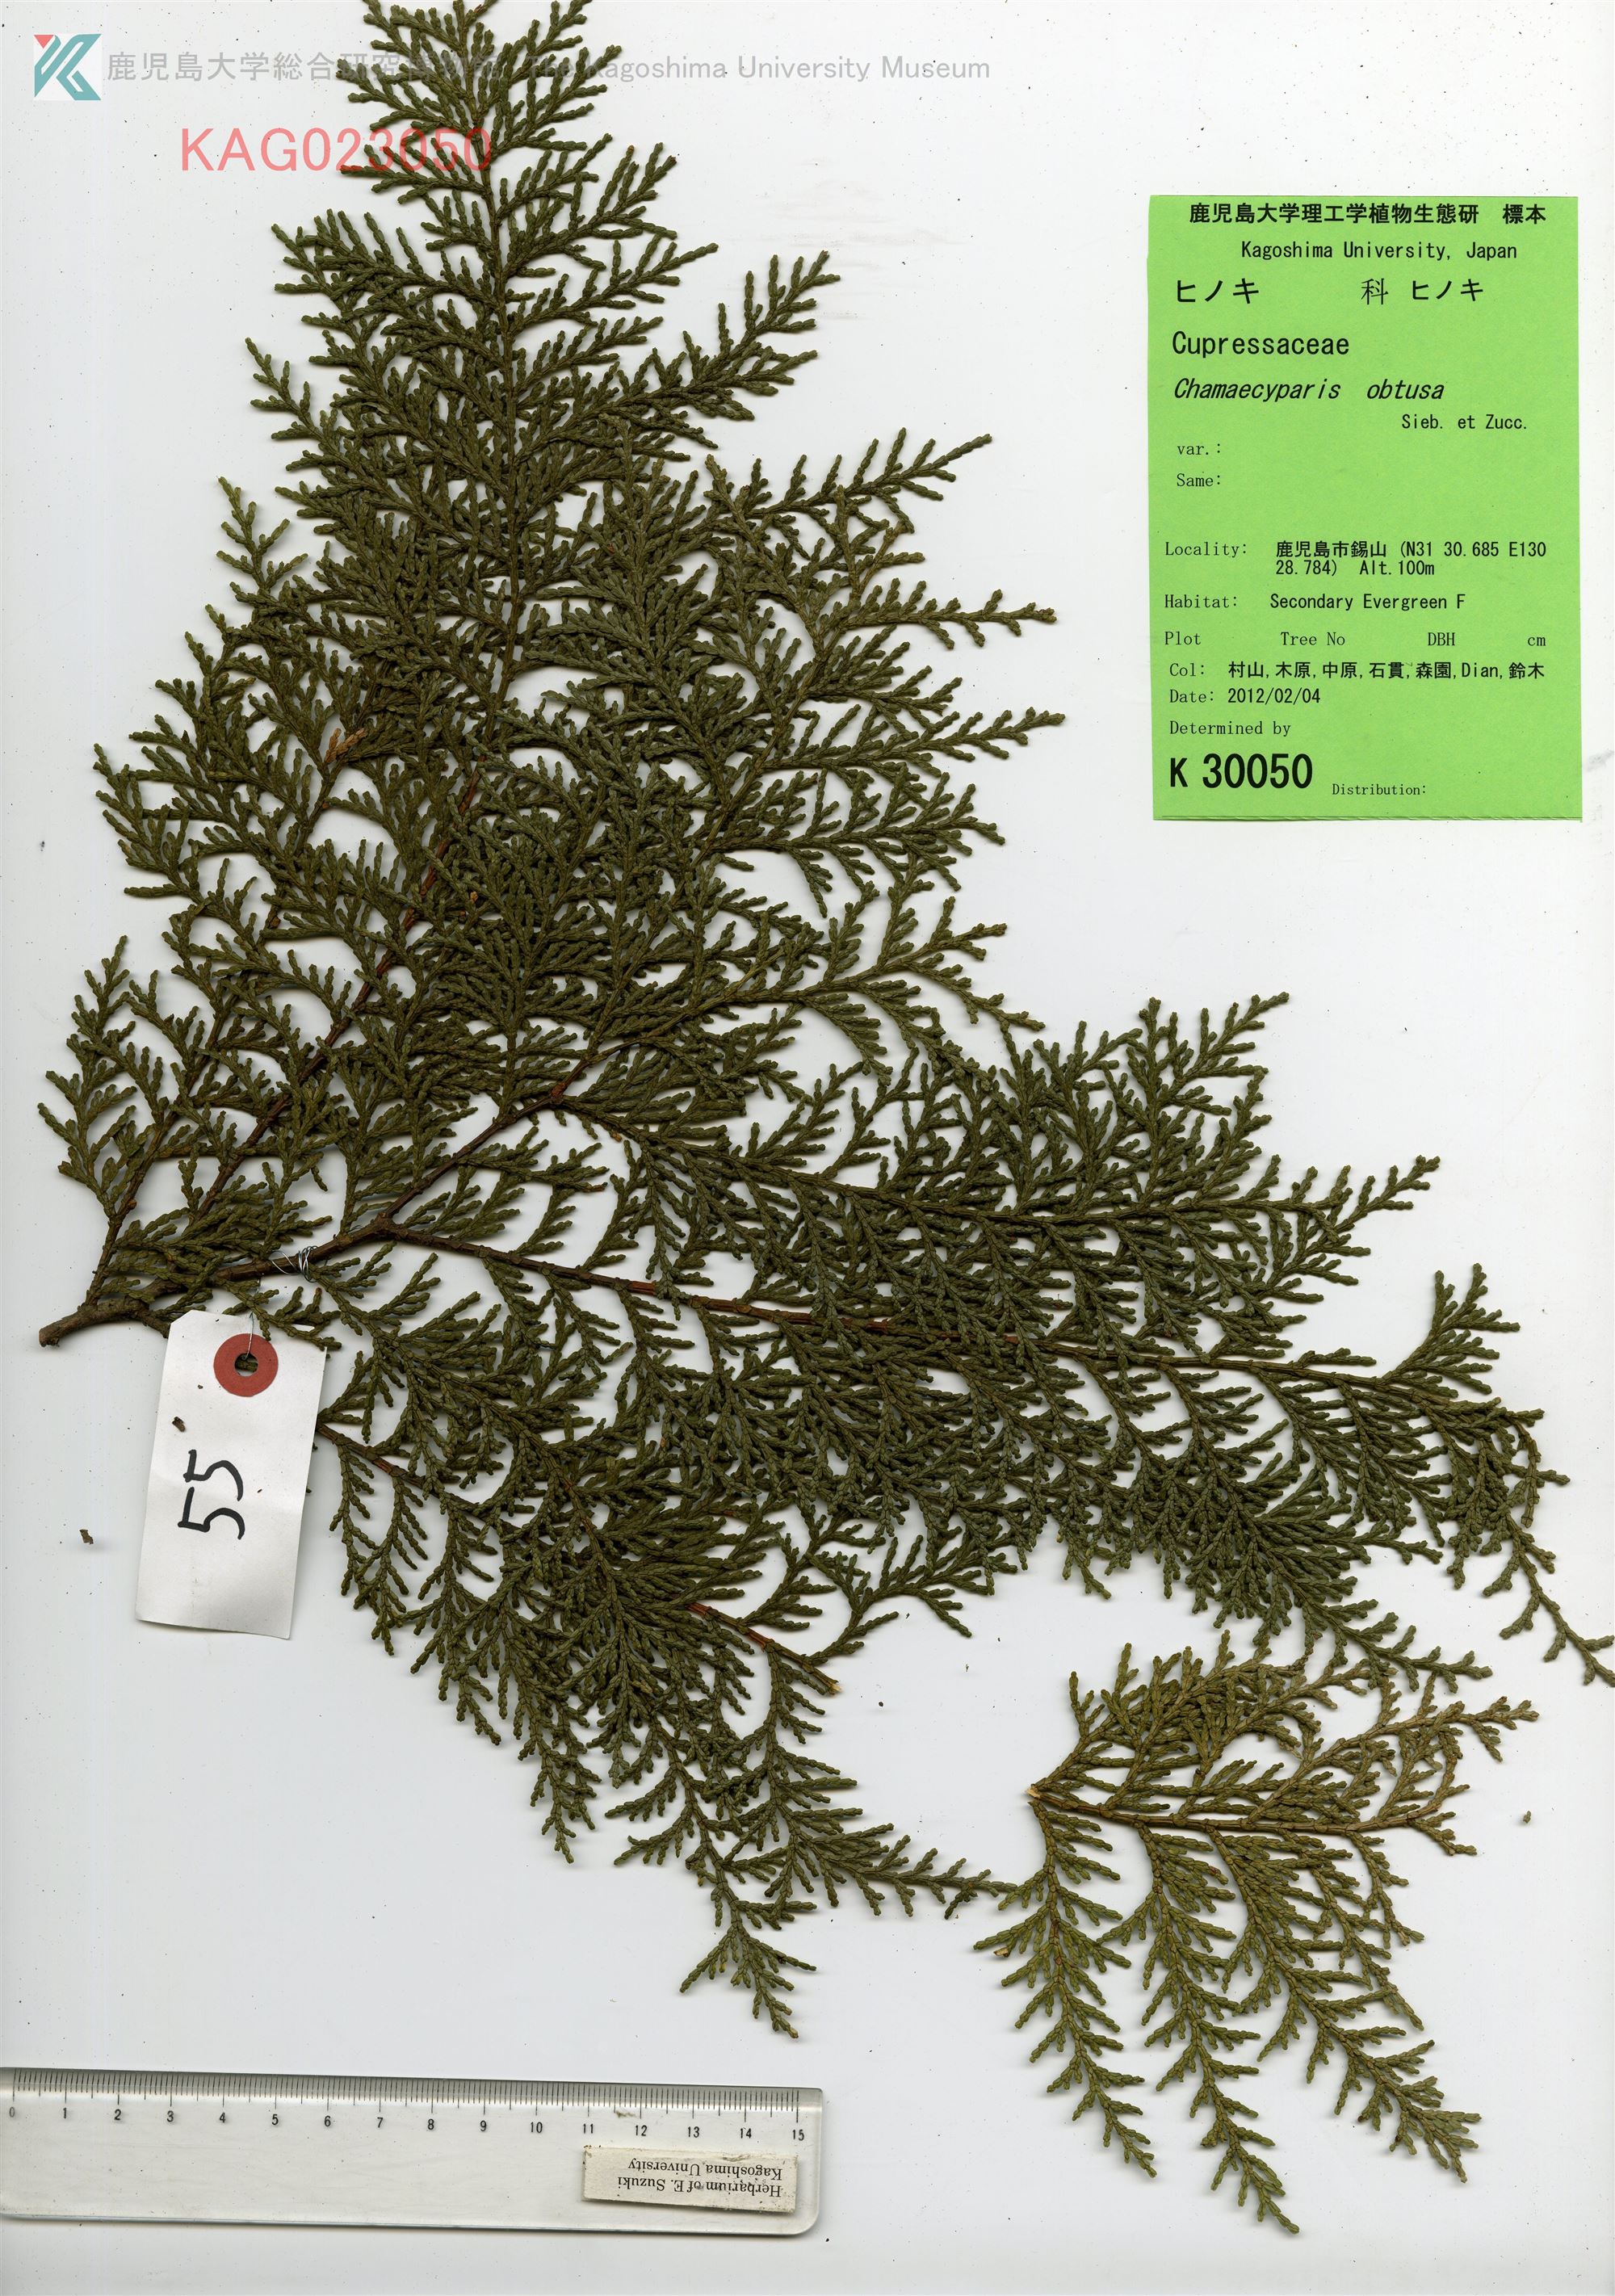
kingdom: Plantae
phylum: Tracheophyta
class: Pinopsida
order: Pinales
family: Cupressaceae
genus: Chamaecyparis
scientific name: Chamaecyparis obtusa
